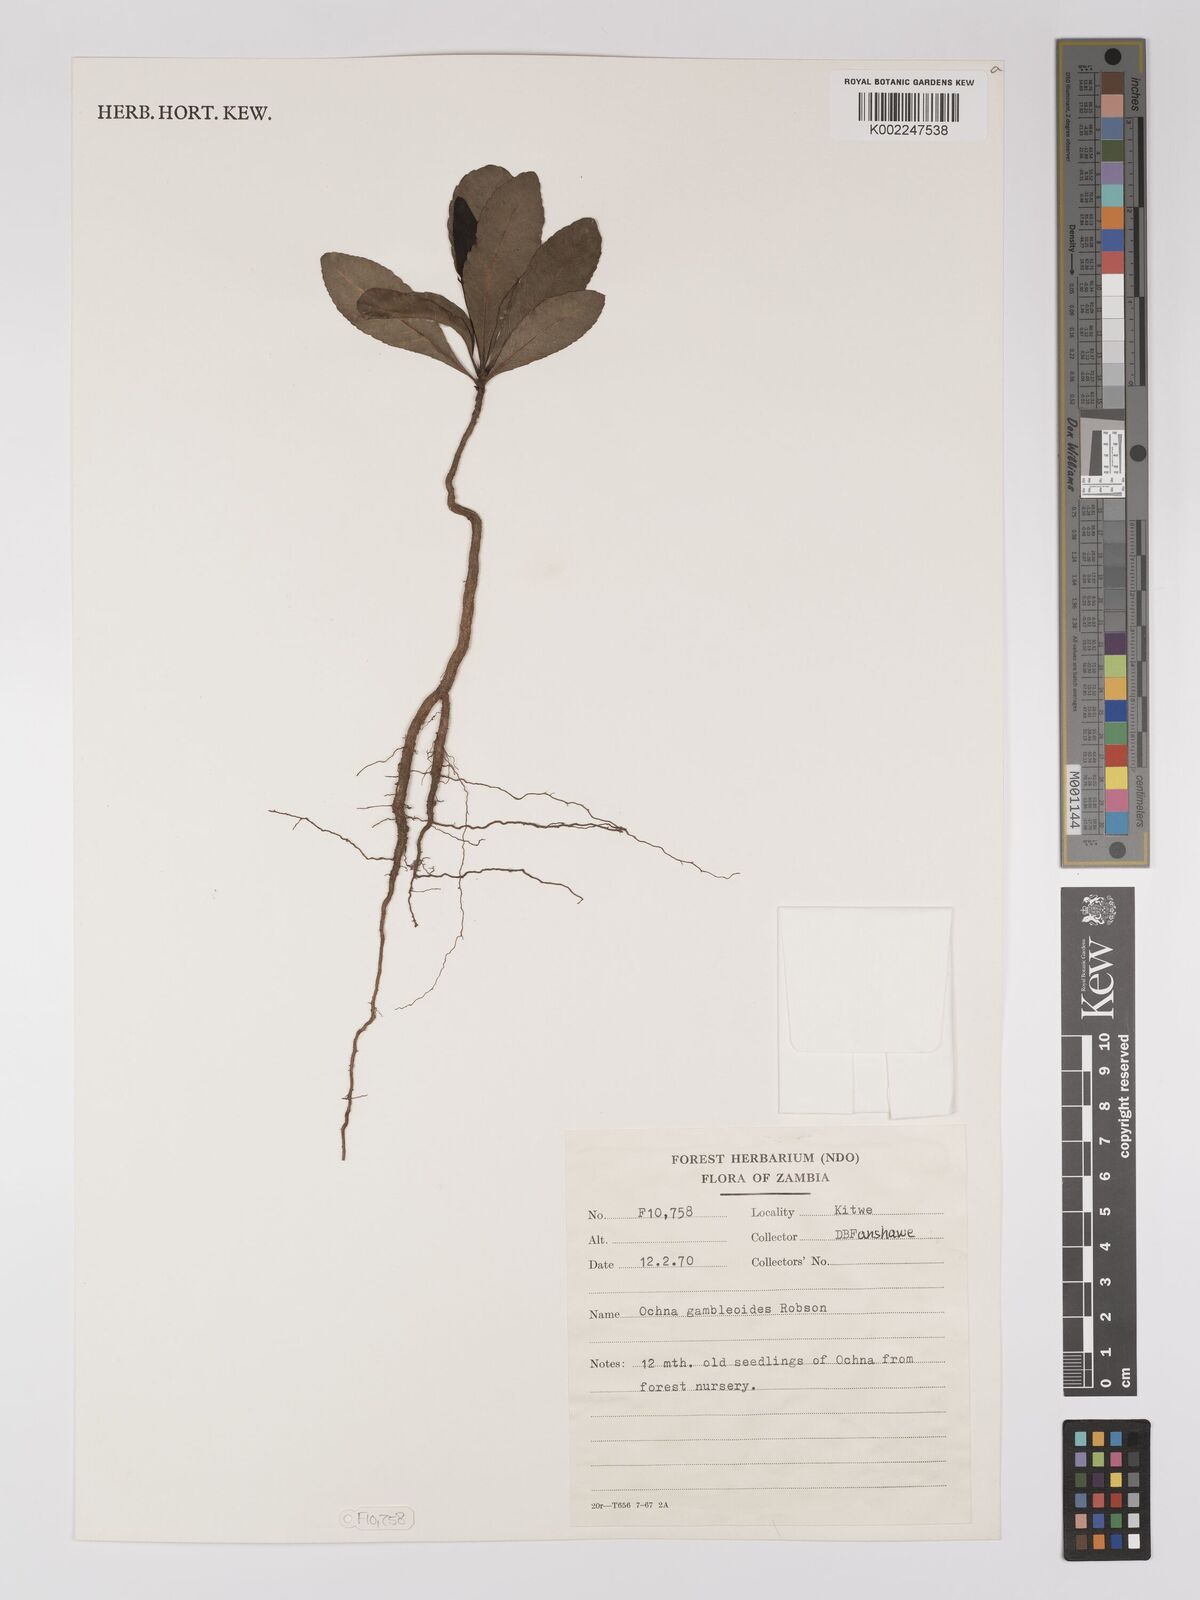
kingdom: Plantae
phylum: Tracheophyta
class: Magnoliopsida
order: Malpighiales
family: Ochnaceae
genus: Ochna
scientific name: Ochna gambleoides
